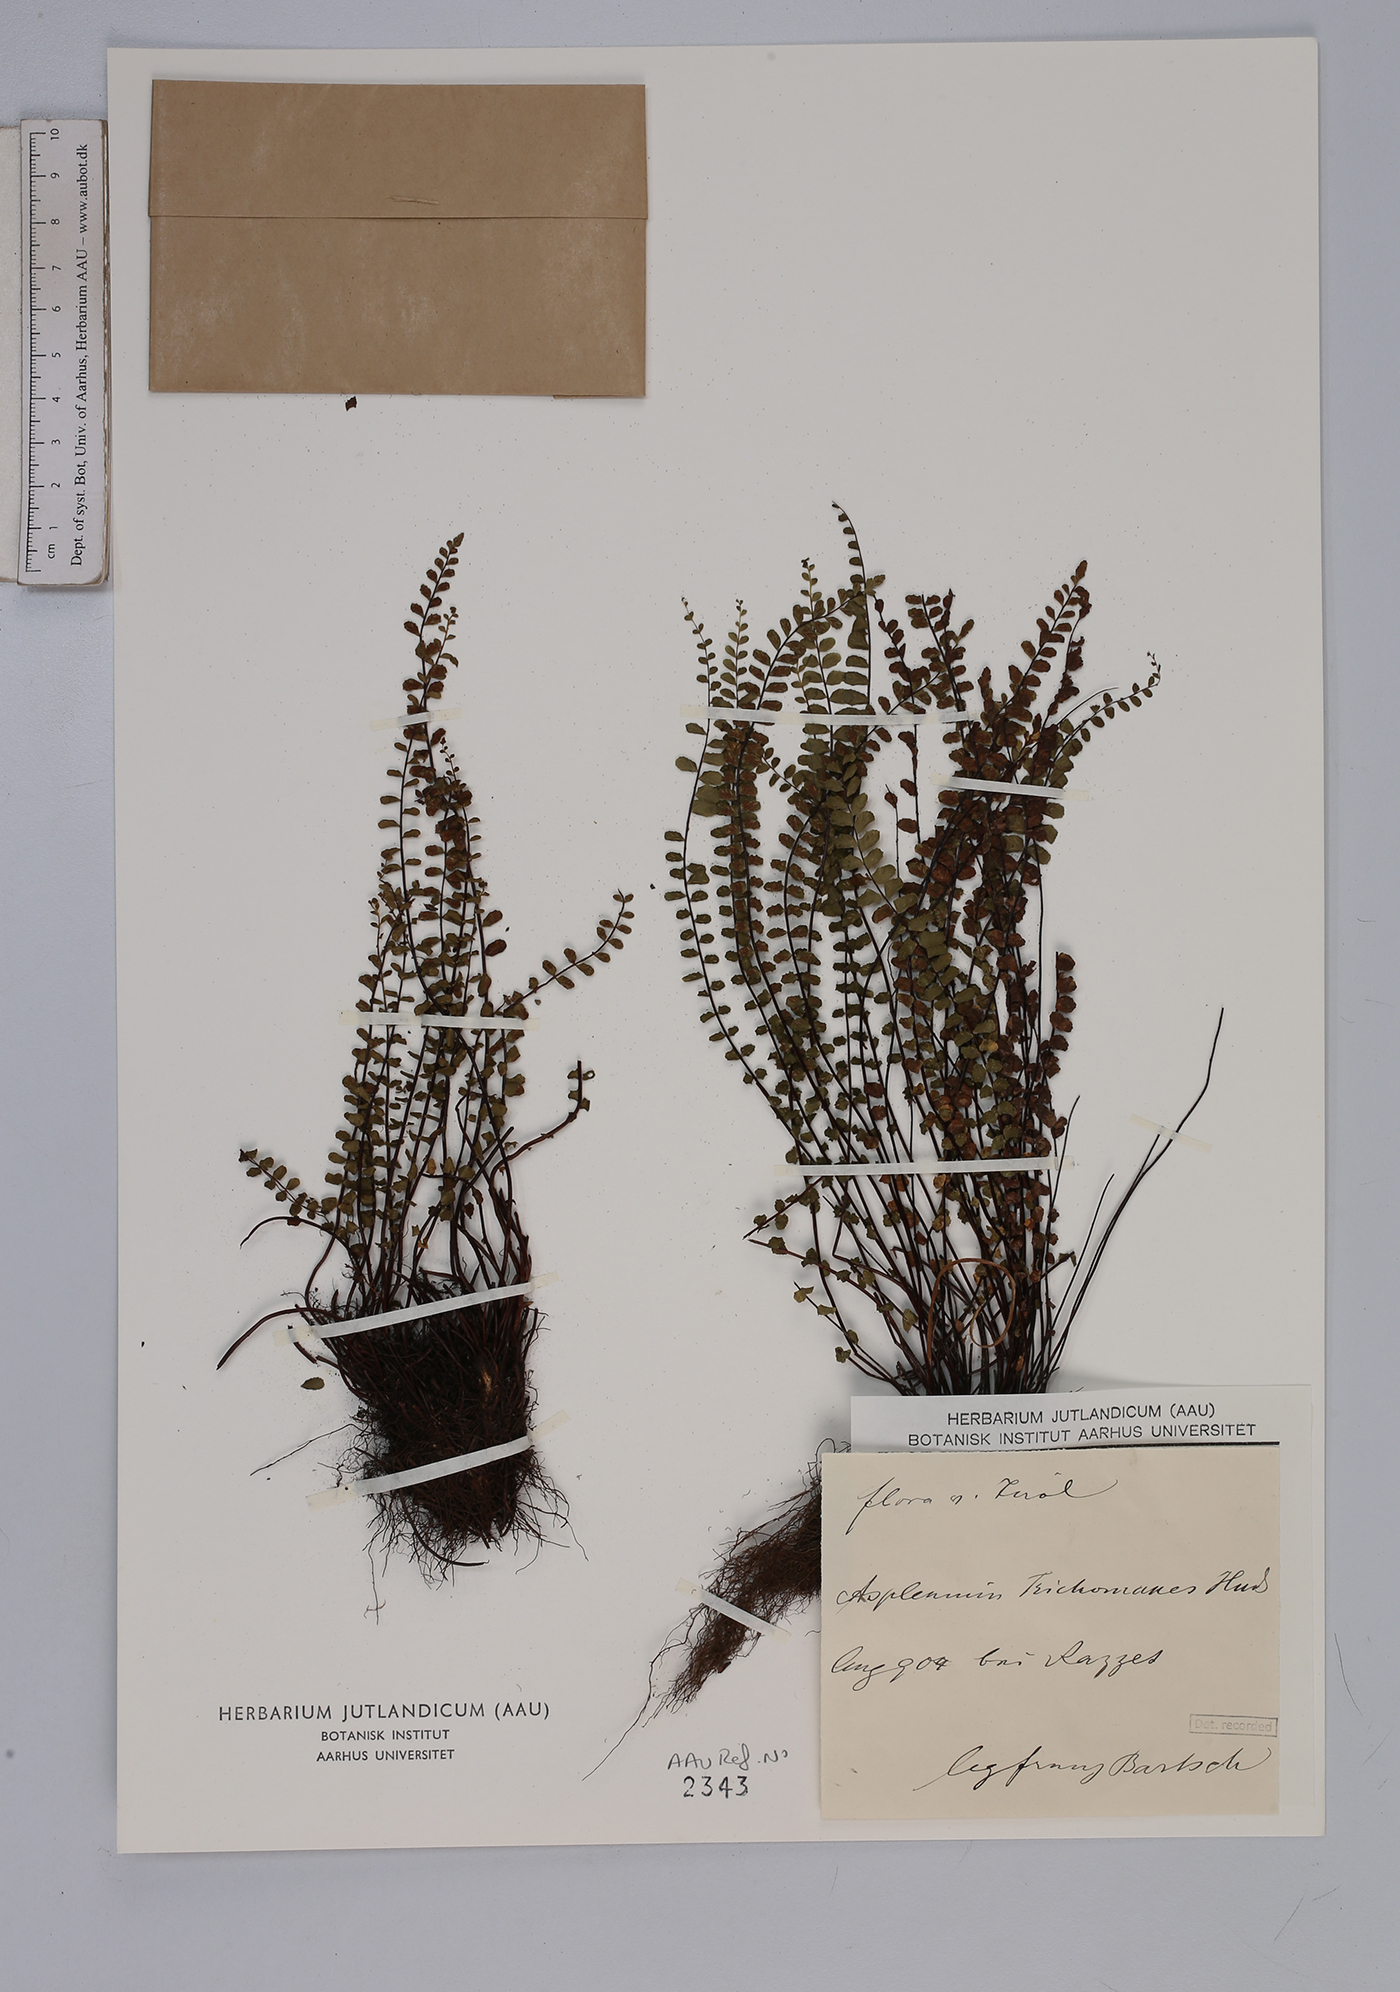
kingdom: Plantae
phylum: Tracheophyta
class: Polypodiopsida
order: Polypodiales
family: Aspleniaceae
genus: Asplenium
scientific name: Asplenium trichomanes
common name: Maidenhair spleenwort
